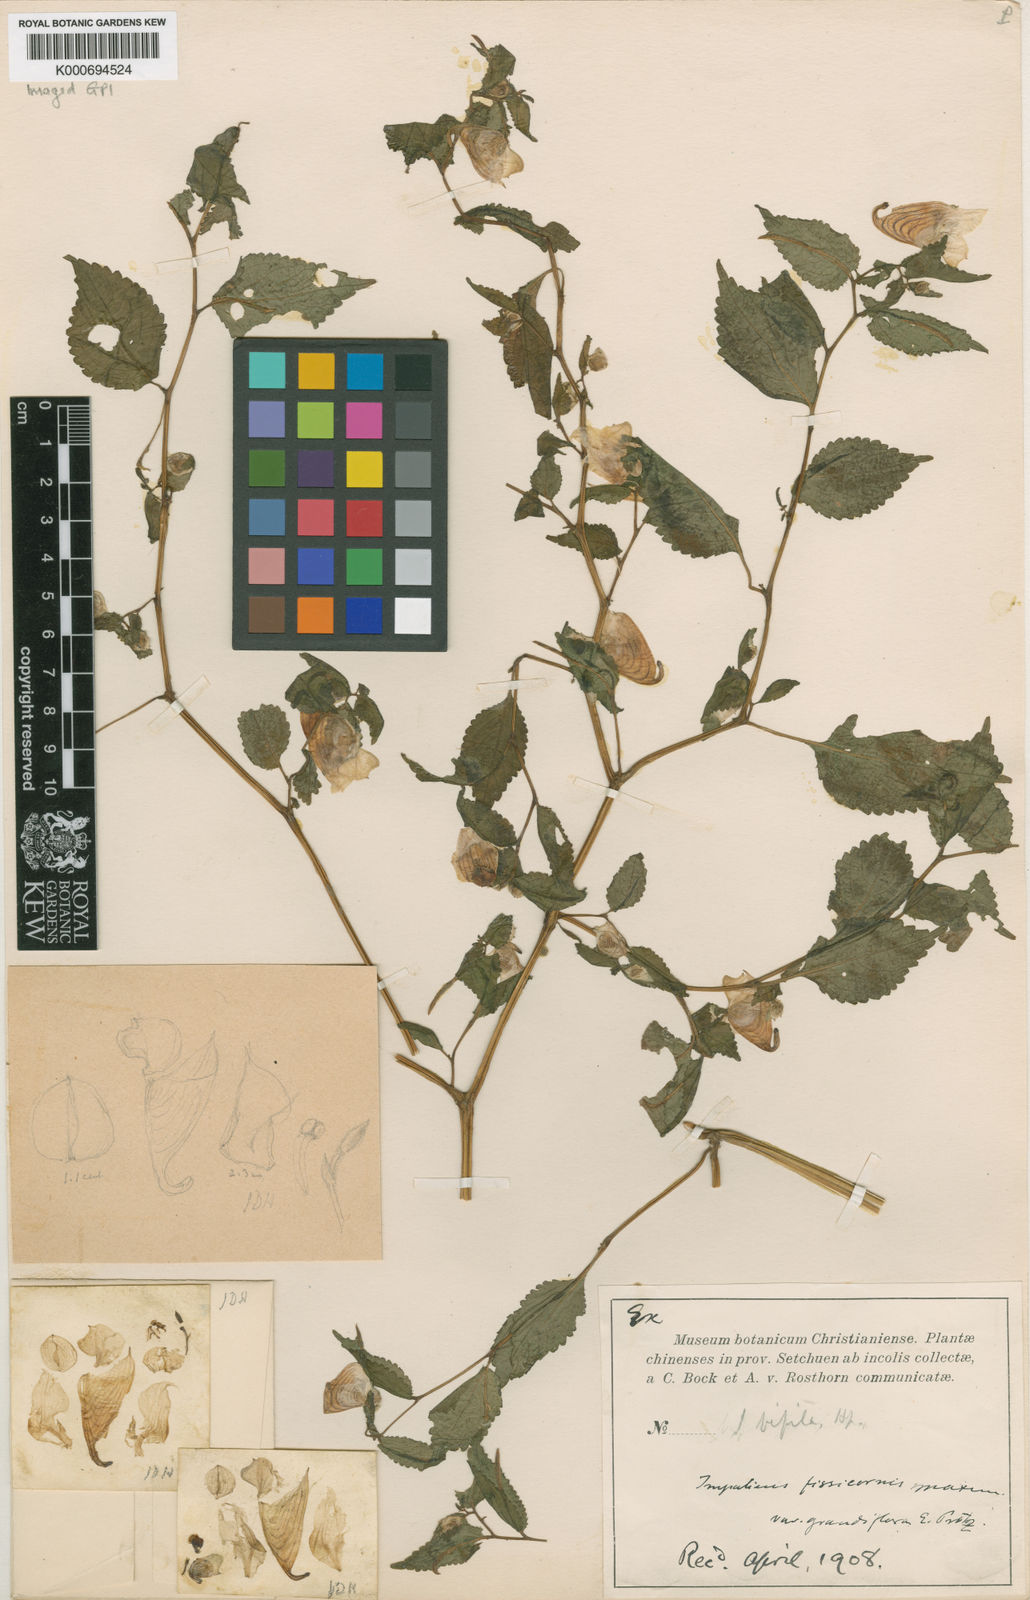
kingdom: Plantae
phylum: Tracheophyta
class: Magnoliopsida
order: Ericales
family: Balsaminaceae
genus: Impatiens
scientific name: Impatiens flaccida
